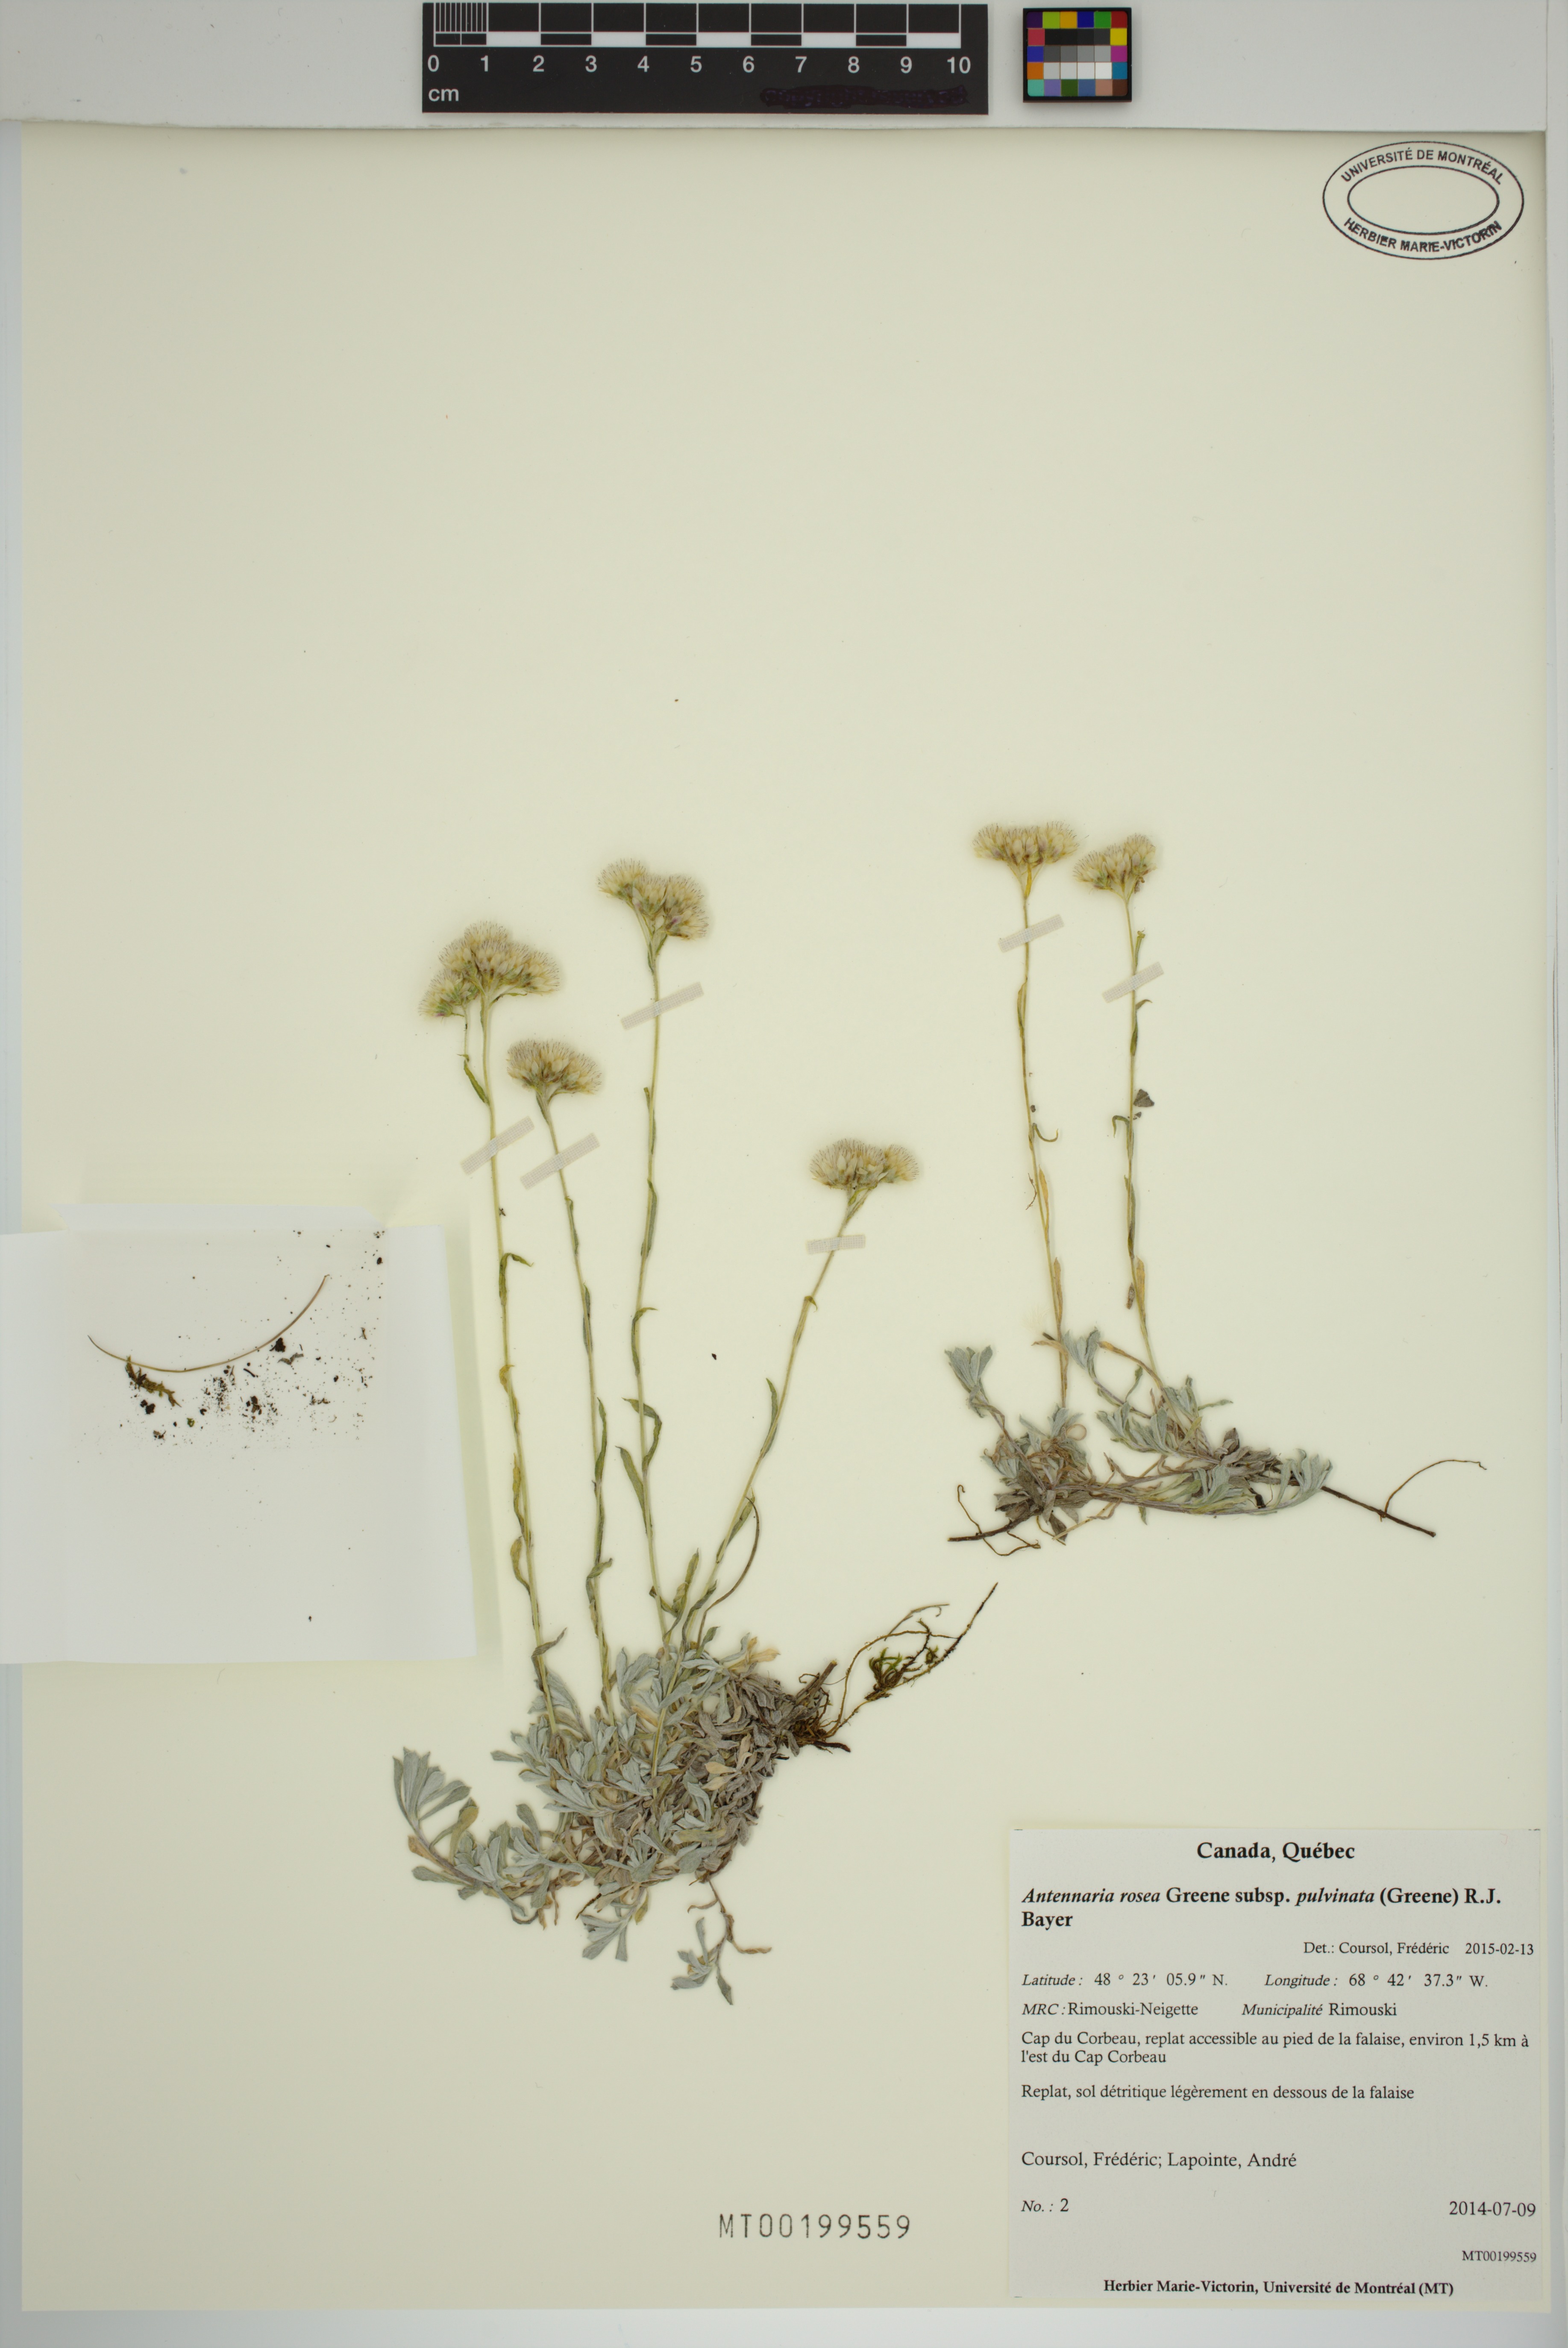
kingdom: Plantae
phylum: Tracheophyta
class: Magnoliopsida
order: Asterales
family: Asteraceae
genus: Antennaria
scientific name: Antennaria rosea
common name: Rosy pussytoes
